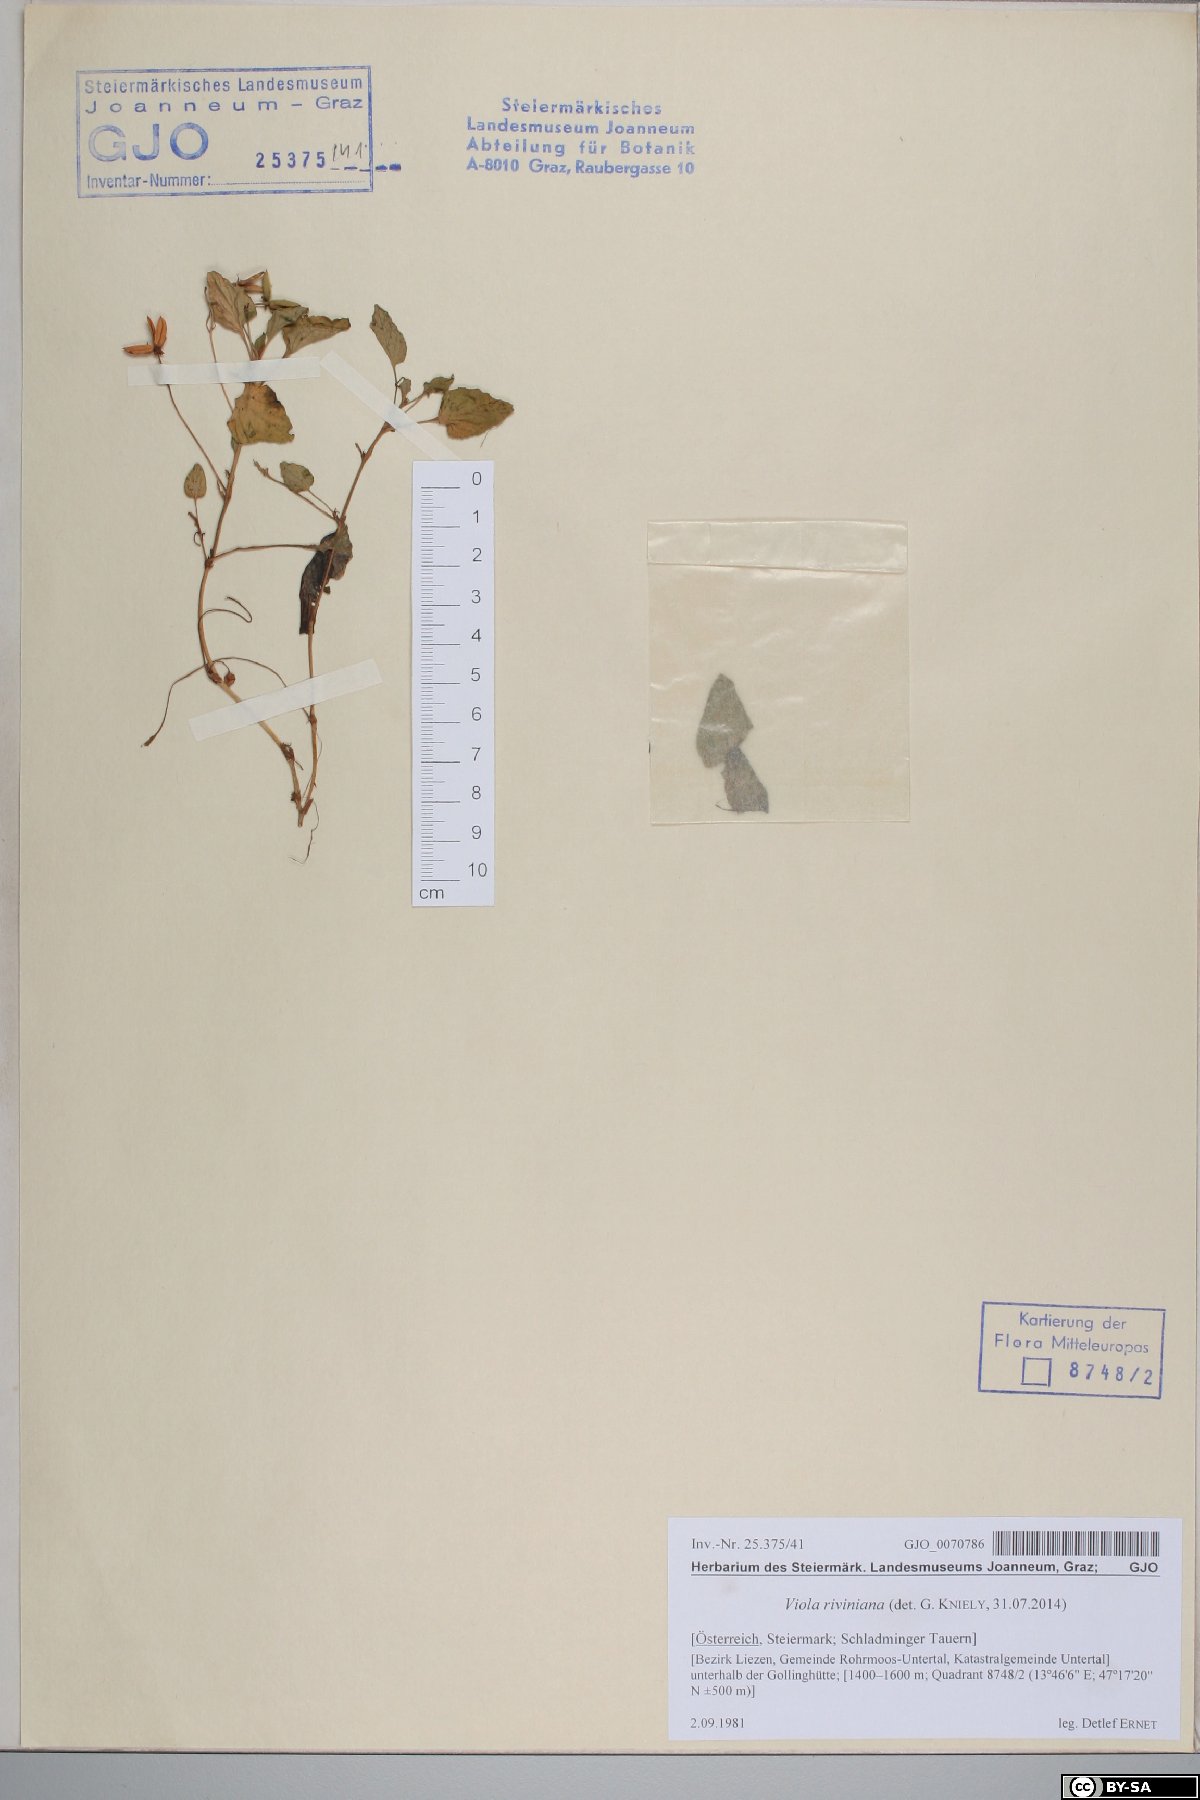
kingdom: Plantae
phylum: Tracheophyta
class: Magnoliopsida
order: Malpighiales
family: Violaceae
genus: Viola
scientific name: Viola riviniana
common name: Common dog-violet
